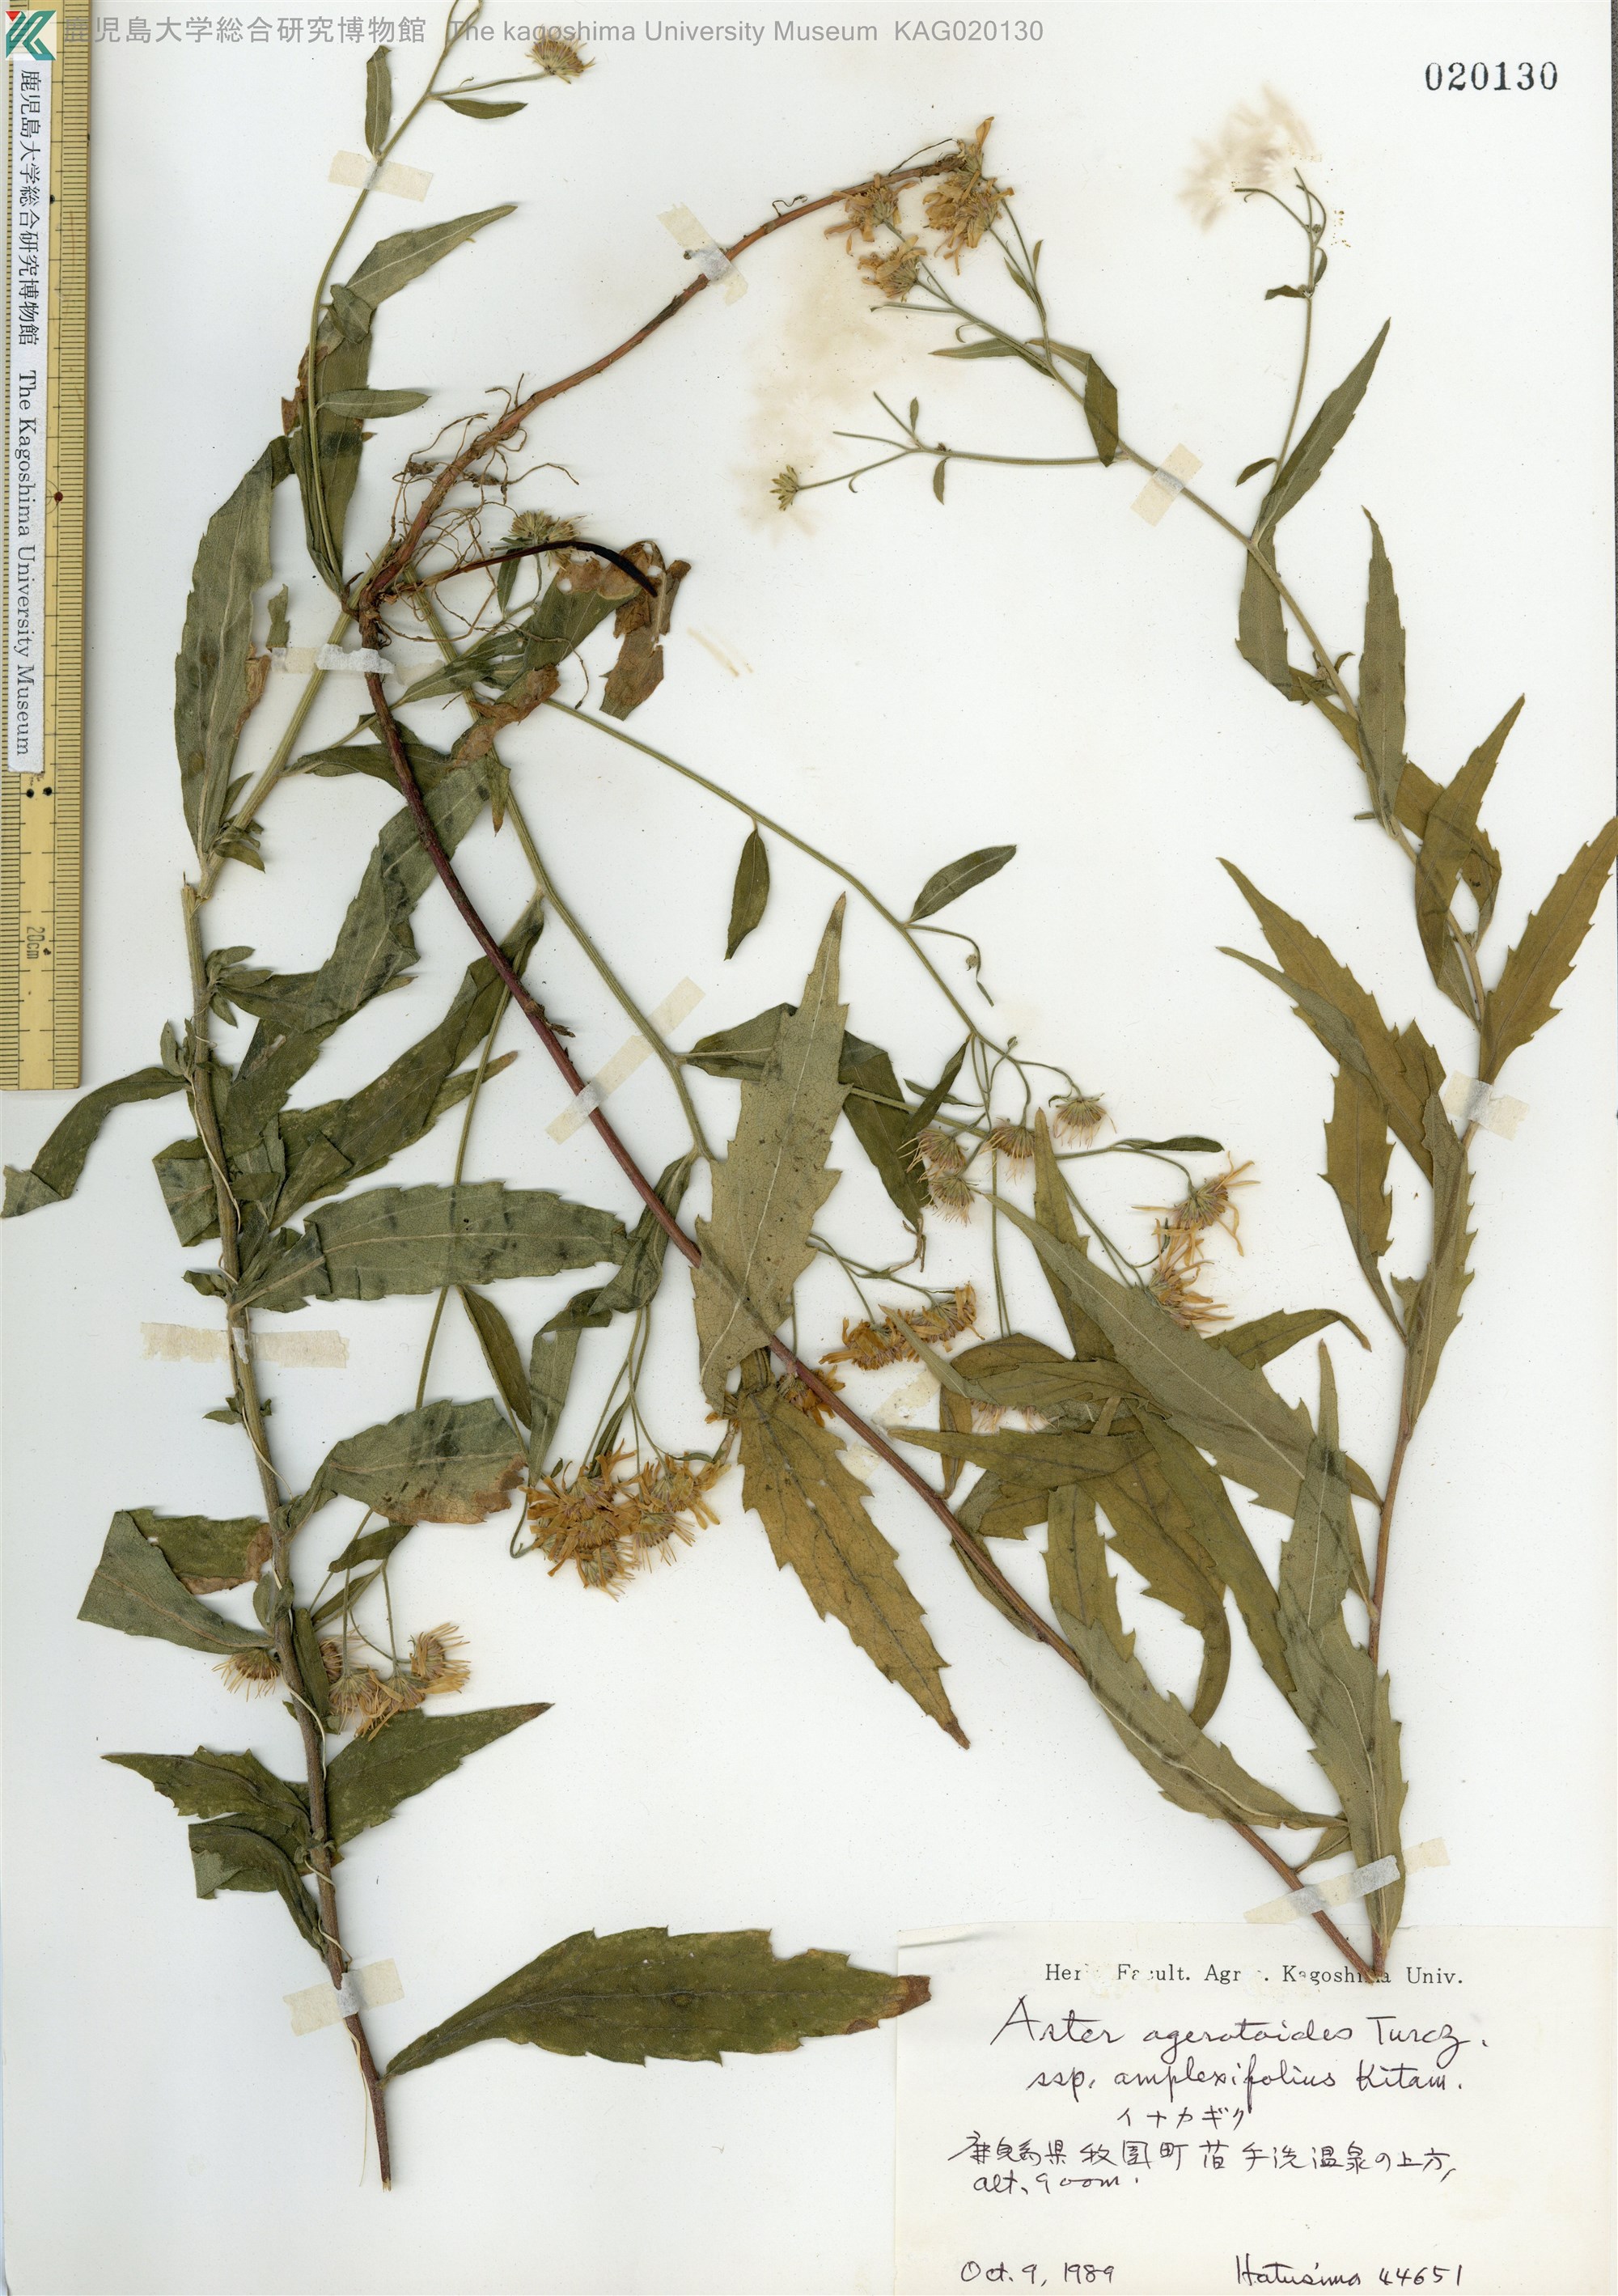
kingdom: Plantae
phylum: Tracheophyta
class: Magnoliopsida
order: Asterales
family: Asteraceae
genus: Aster
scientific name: Aster satsumensis
